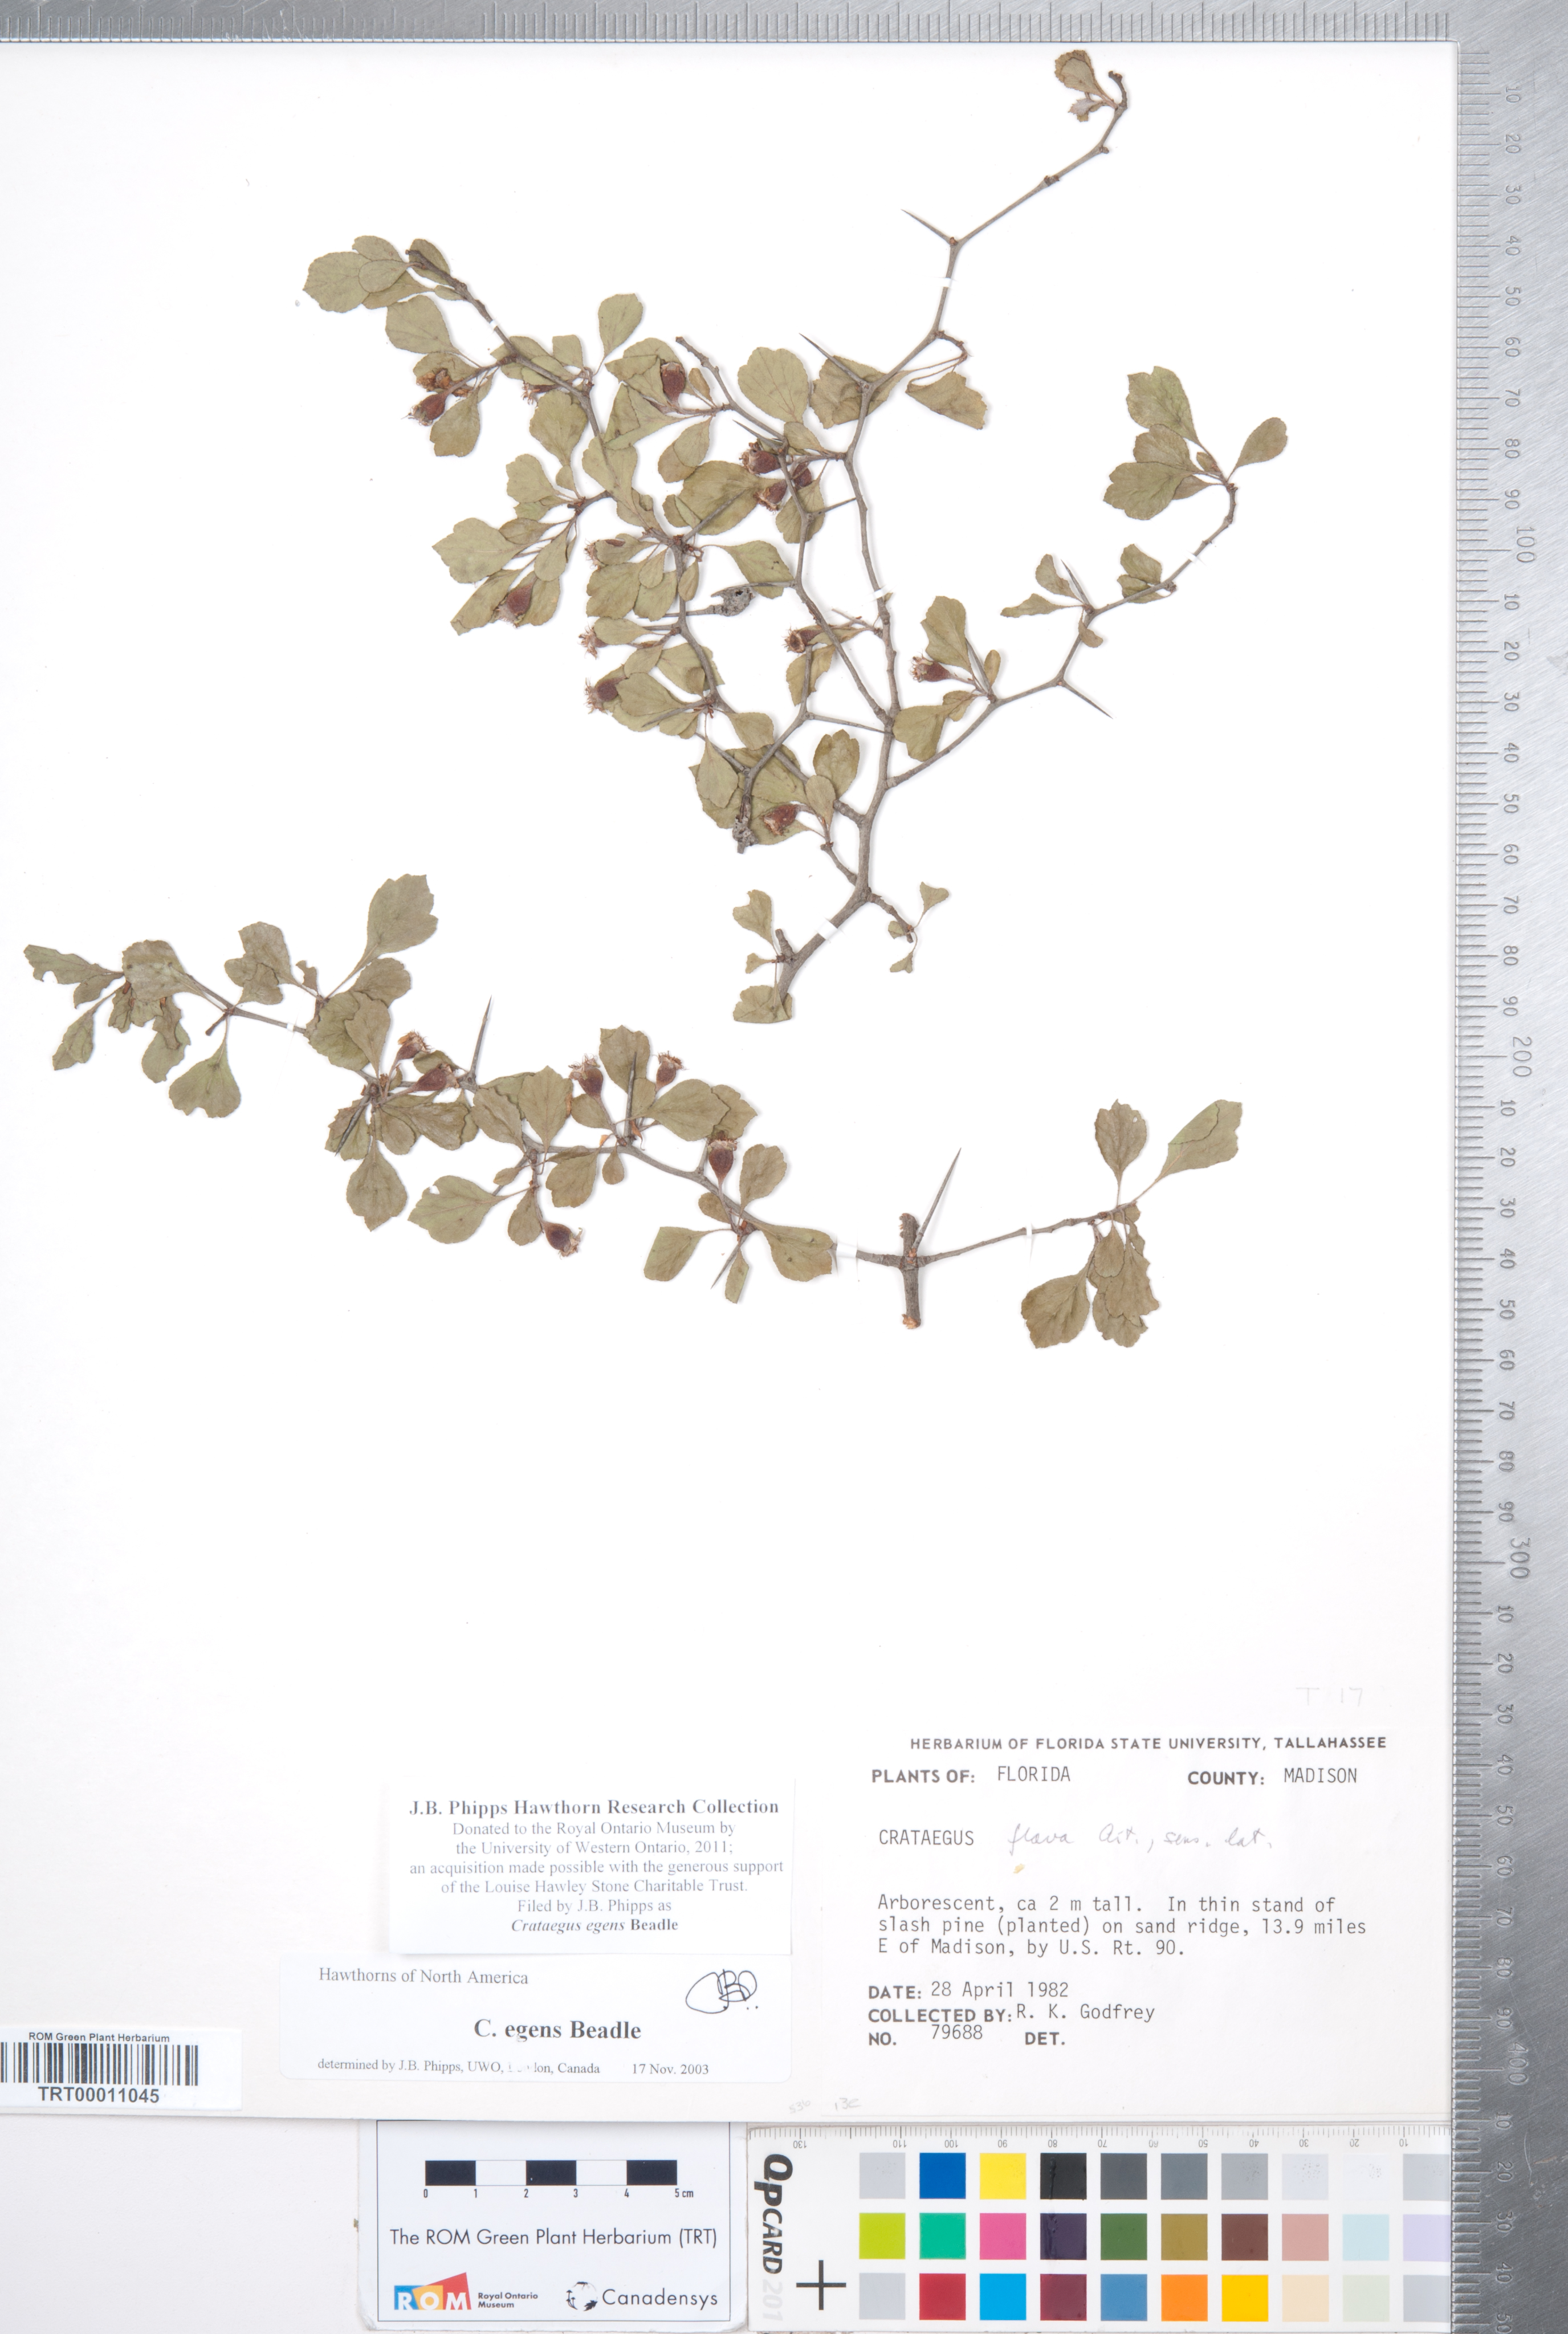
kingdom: Plantae
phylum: Tracheophyta
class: Magnoliopsida
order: Rosales
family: Rosaceae
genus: Crataegus
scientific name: Crataegus senta
